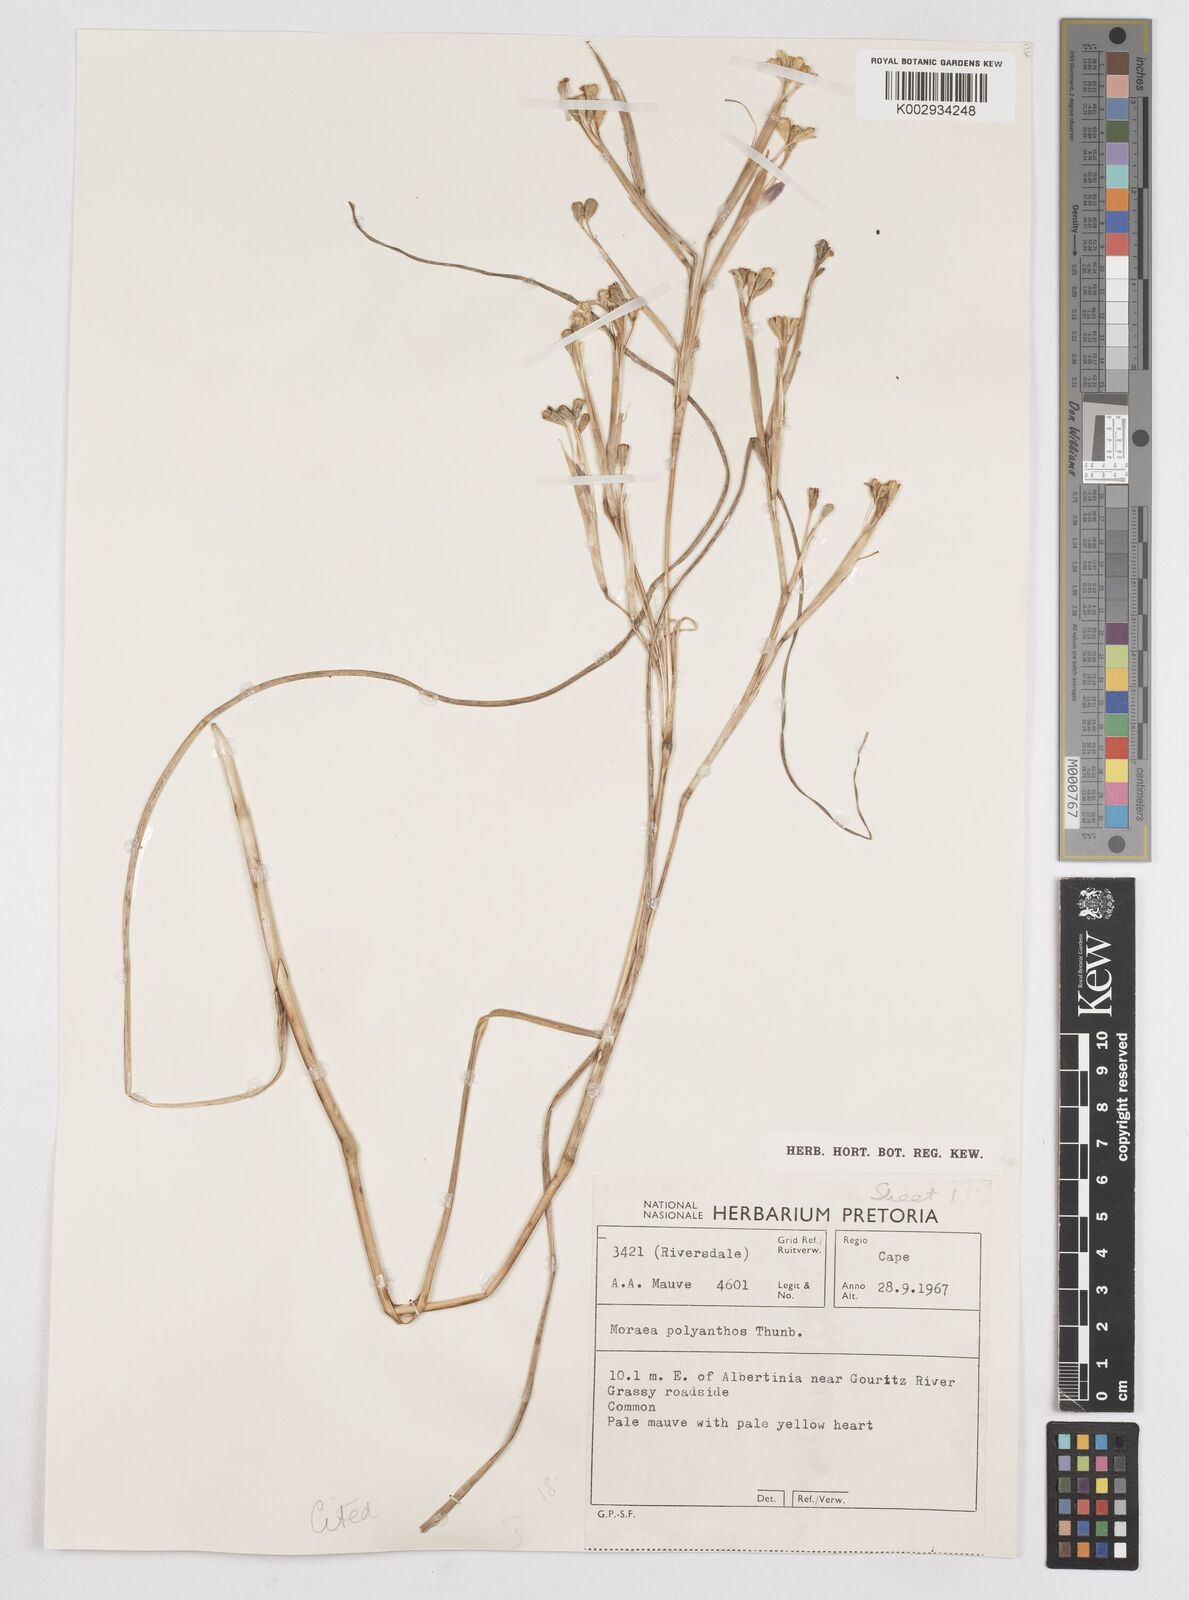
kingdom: Plantae
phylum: Tracheophyta
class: Liliopsida
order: Asparagales
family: Iridaceae
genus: Moraea
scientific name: Moraea bipartita
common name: Blue tulp
